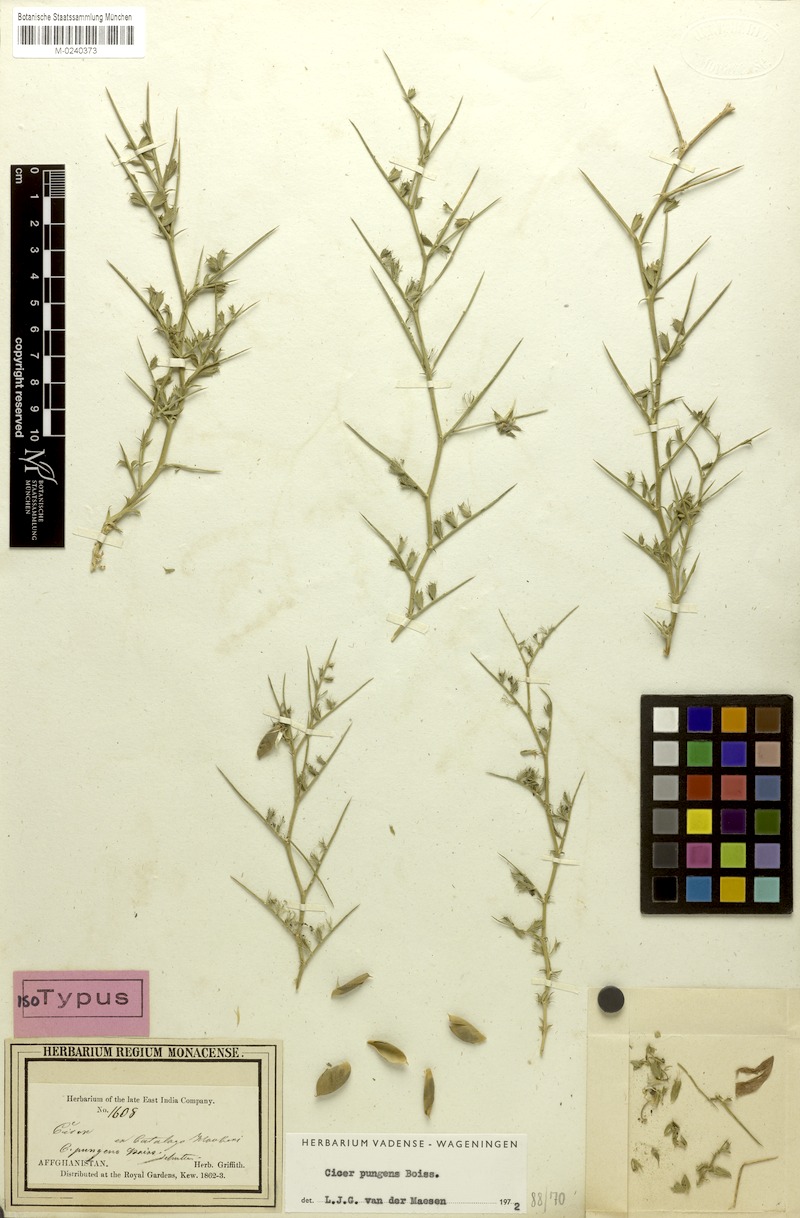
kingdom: Plantae
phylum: Tracheophyta
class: Magnoliopsida
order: Fabales
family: Fabaceae
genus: Cicer
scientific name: Cicer pungens
